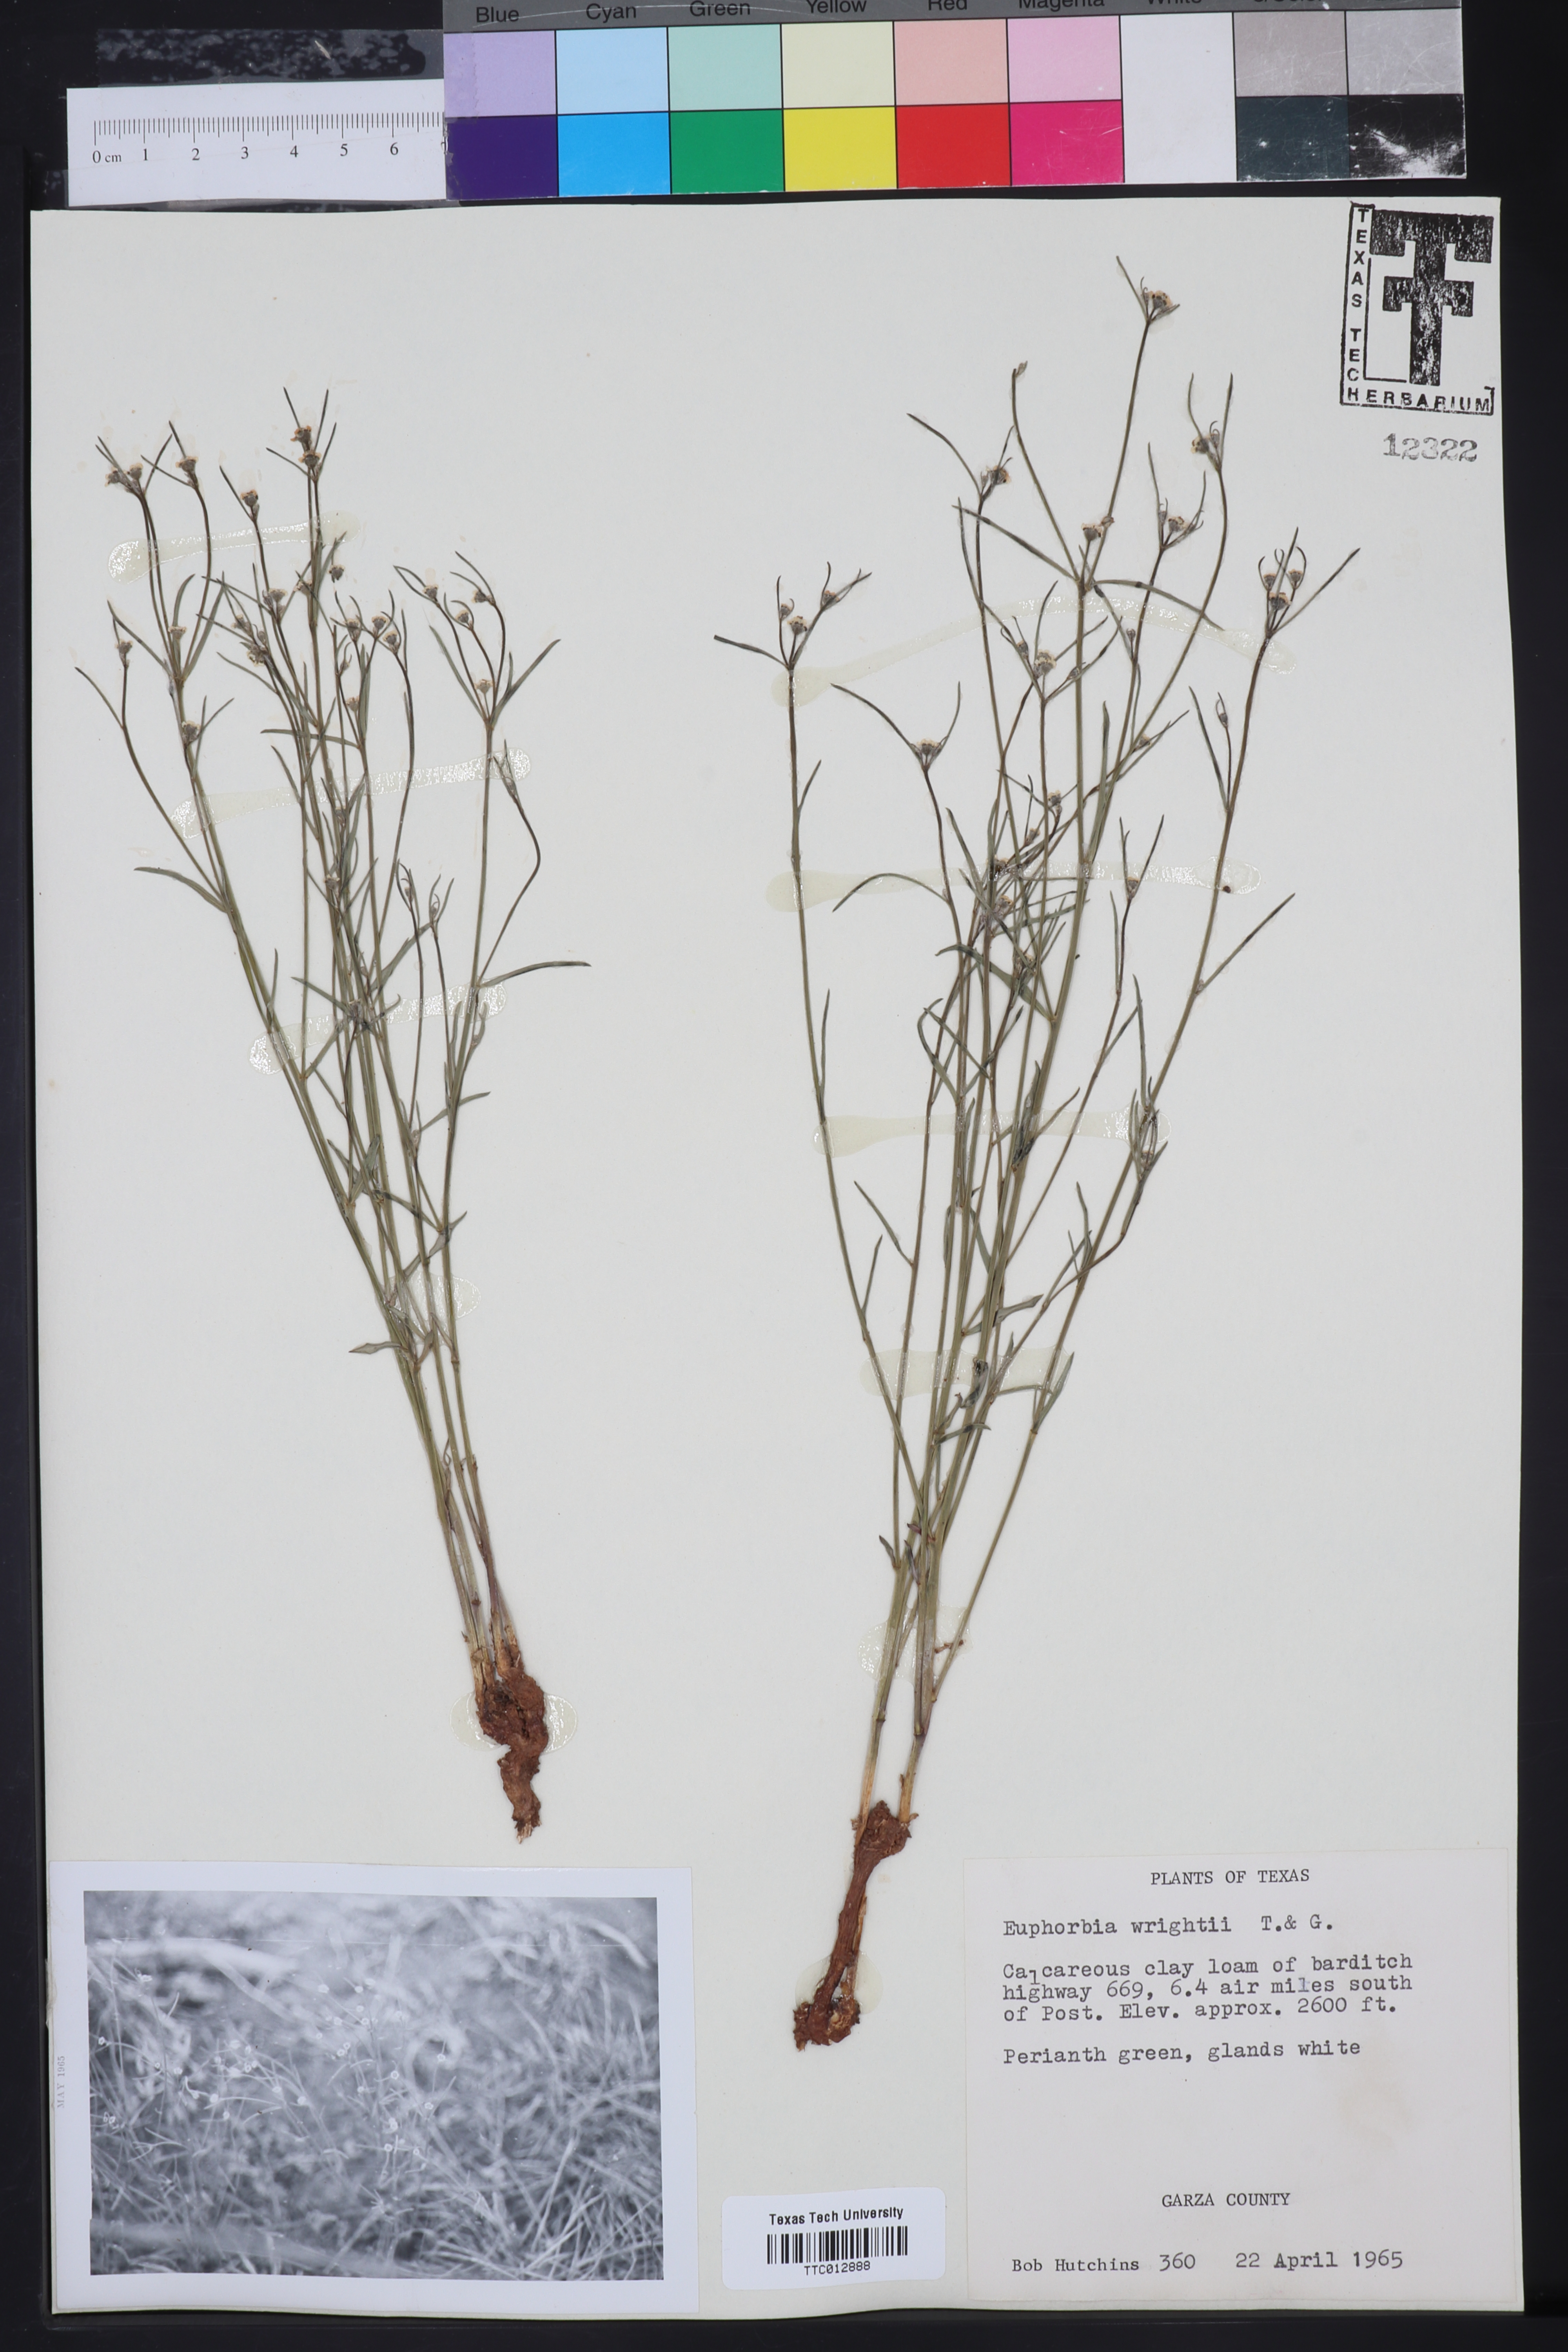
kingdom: Plantae
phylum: Tracheophyta
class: Magnoliopsida
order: Malpighiales
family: Euphorbiaceae
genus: Euphorbia
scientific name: Euphorbia wrightii
